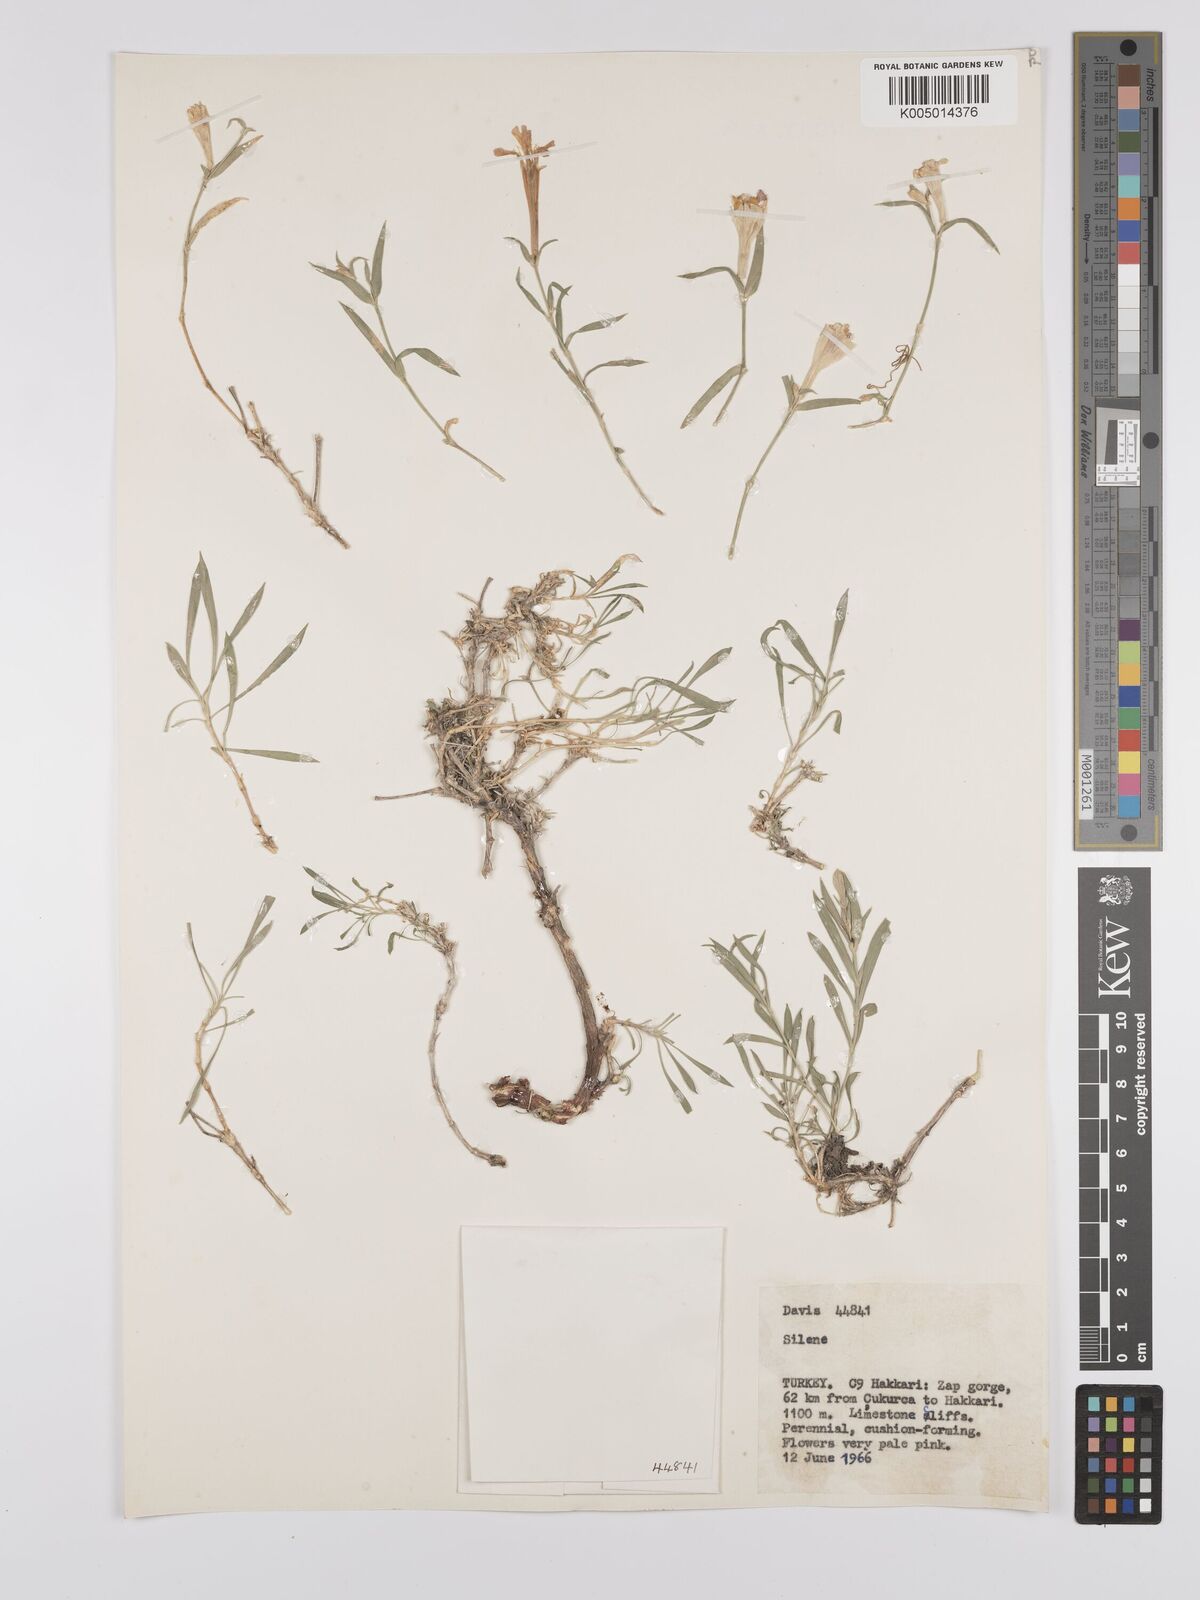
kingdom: Plantae
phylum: Tracheophyta
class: Magnoliopsida
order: Caryophyllales
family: Caryophyllaceae
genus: Silene
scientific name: Silene
